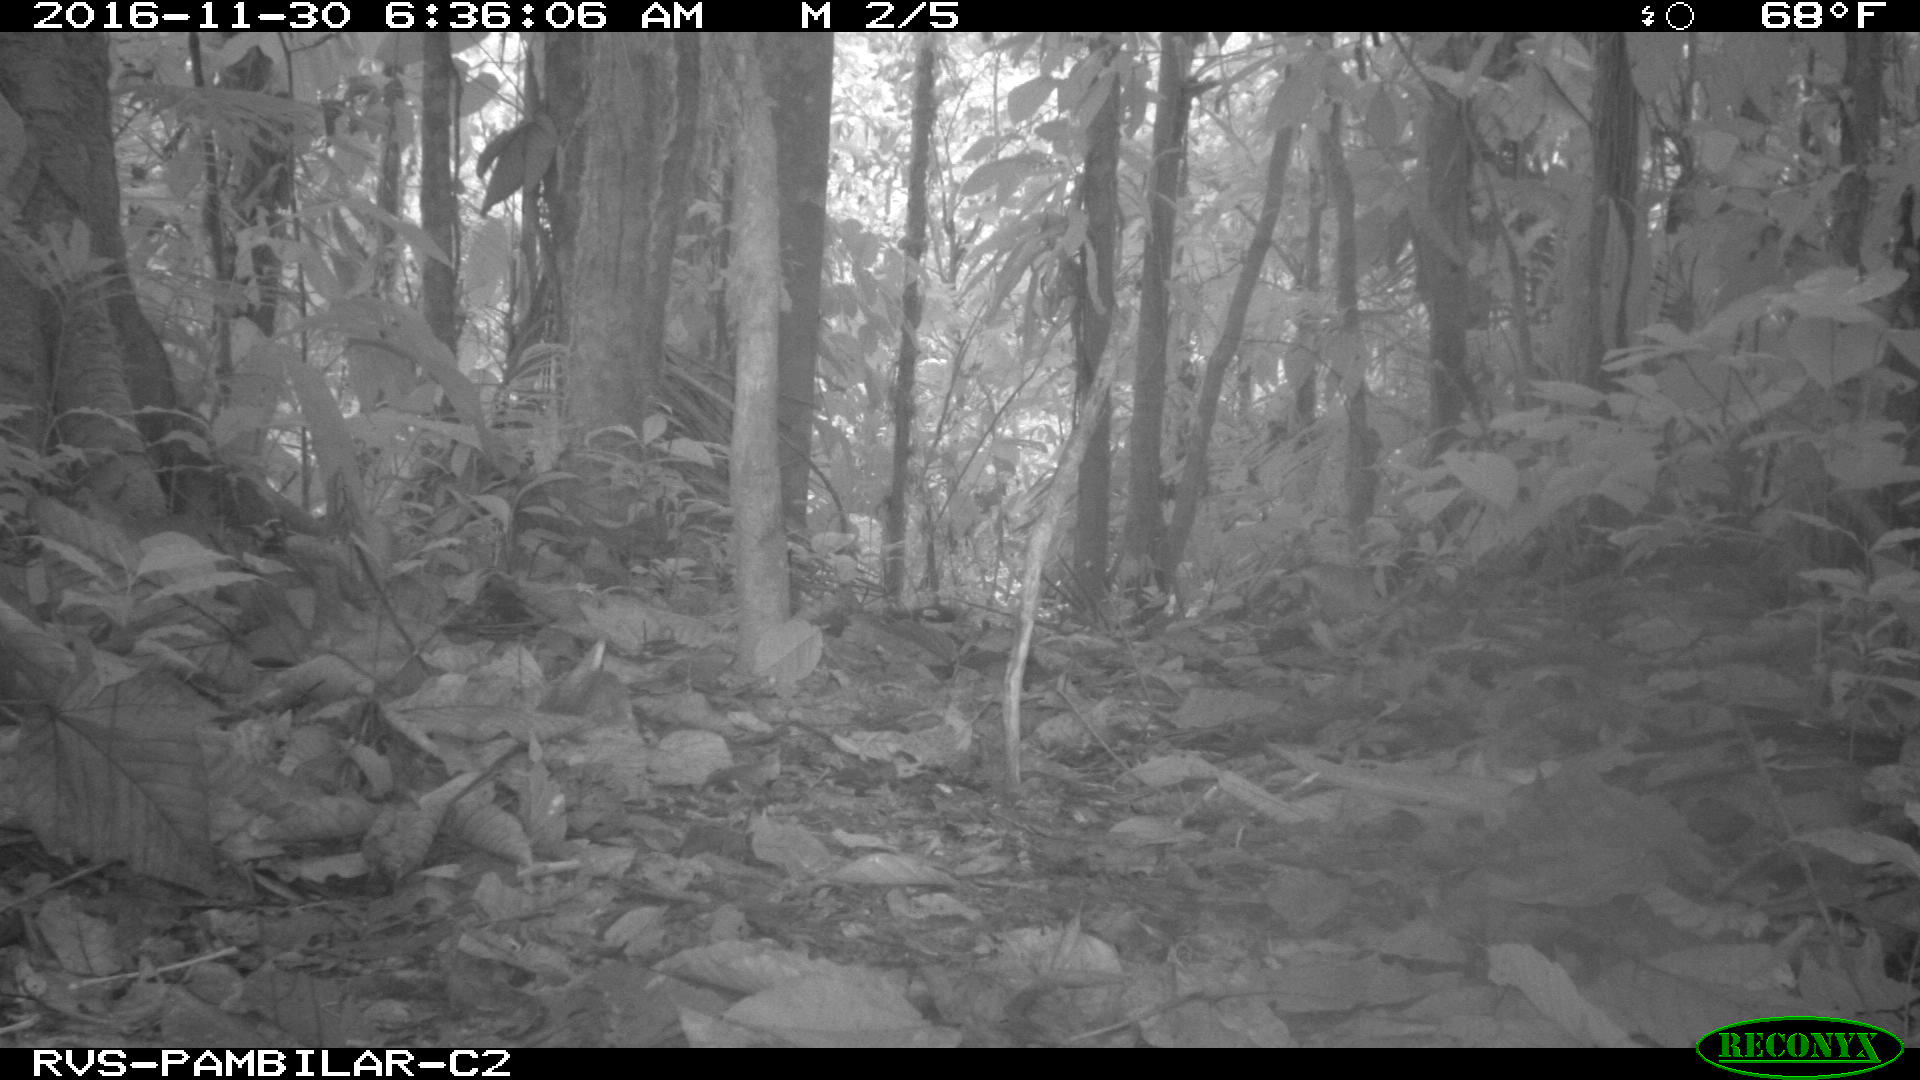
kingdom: Animalia
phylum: Chordata
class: Mammalia
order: Rodentia
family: Dasyproctidae
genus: Dasyprocta
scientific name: Dasyprocta punctata
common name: Central american agouti
